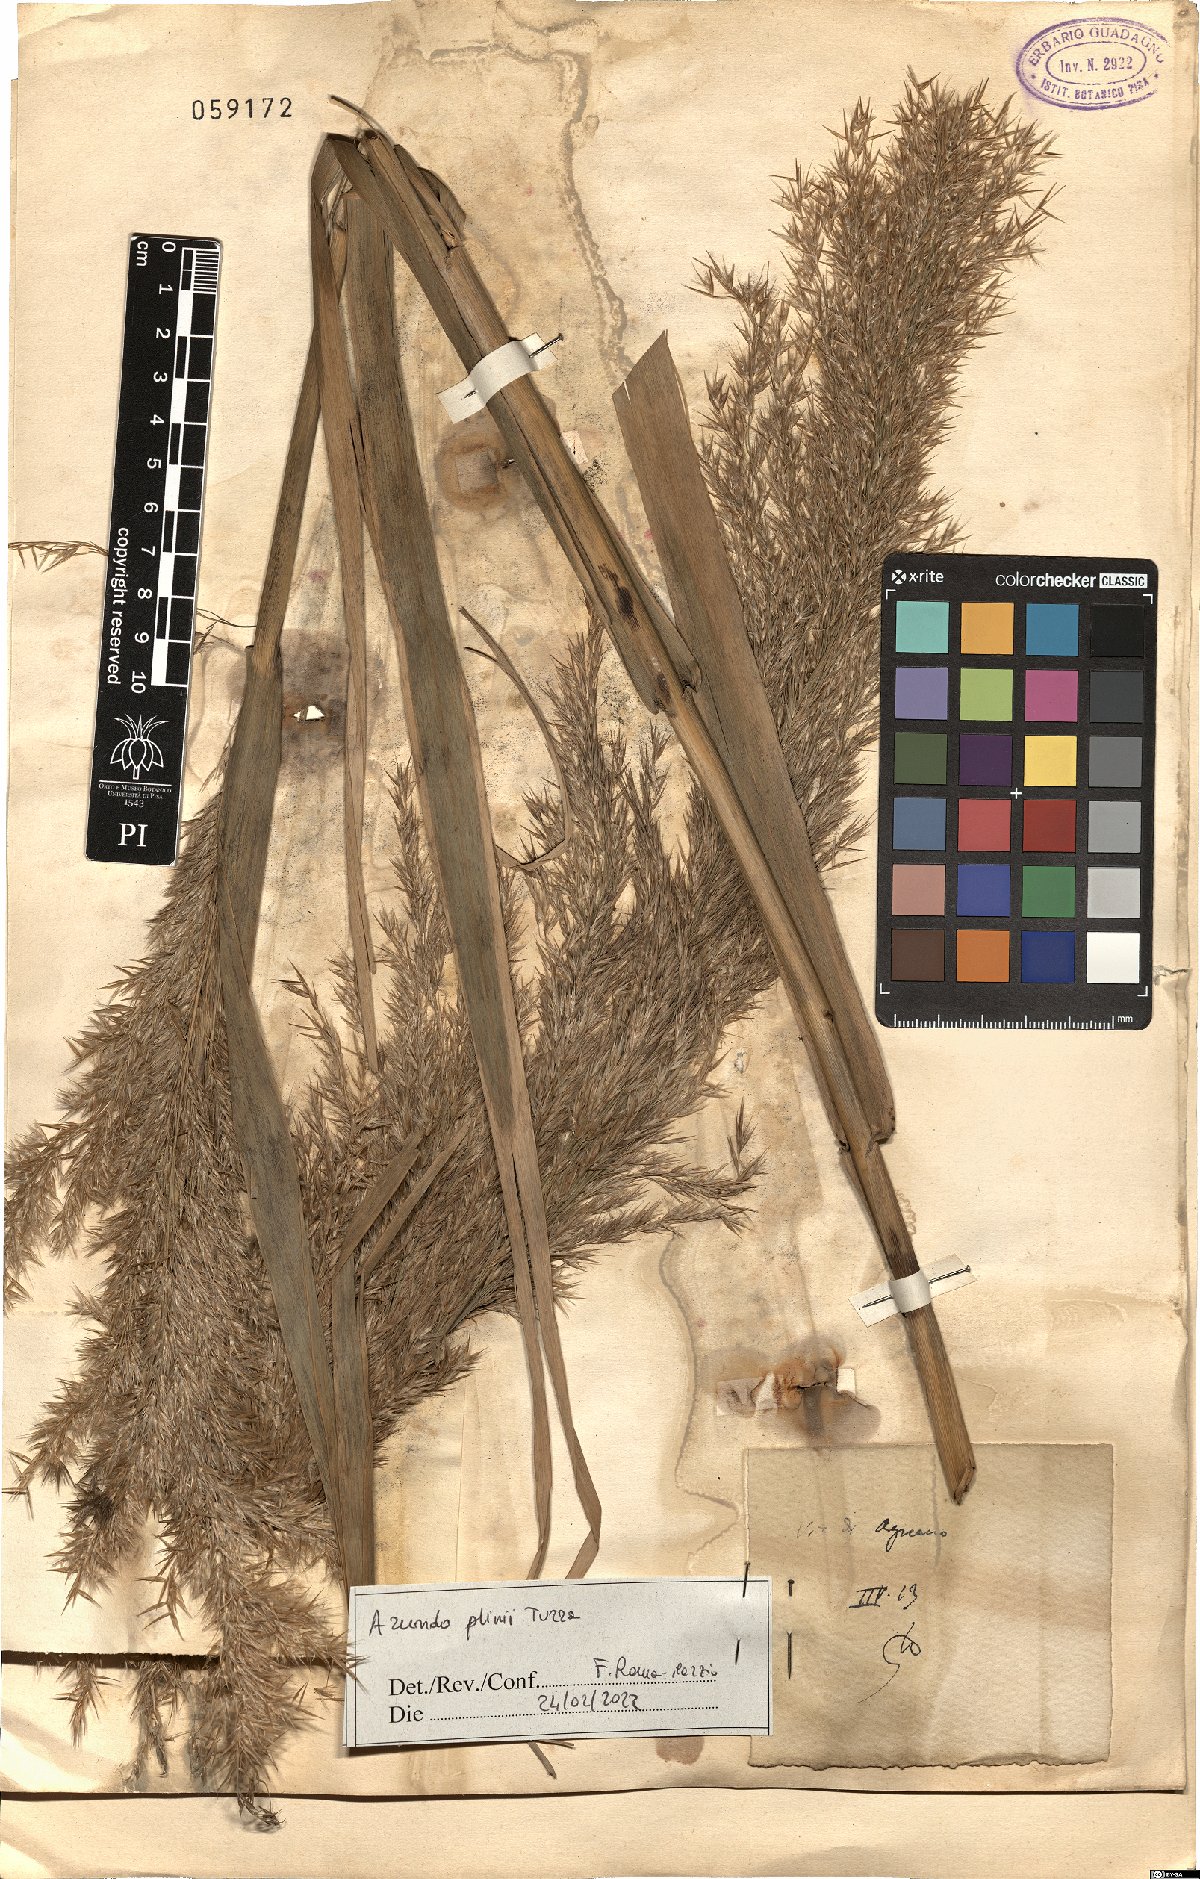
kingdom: Plantae
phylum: Tracheophyta
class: Liliopsida
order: Poales
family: Poaceae
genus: Arundo
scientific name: Arundo plinii
